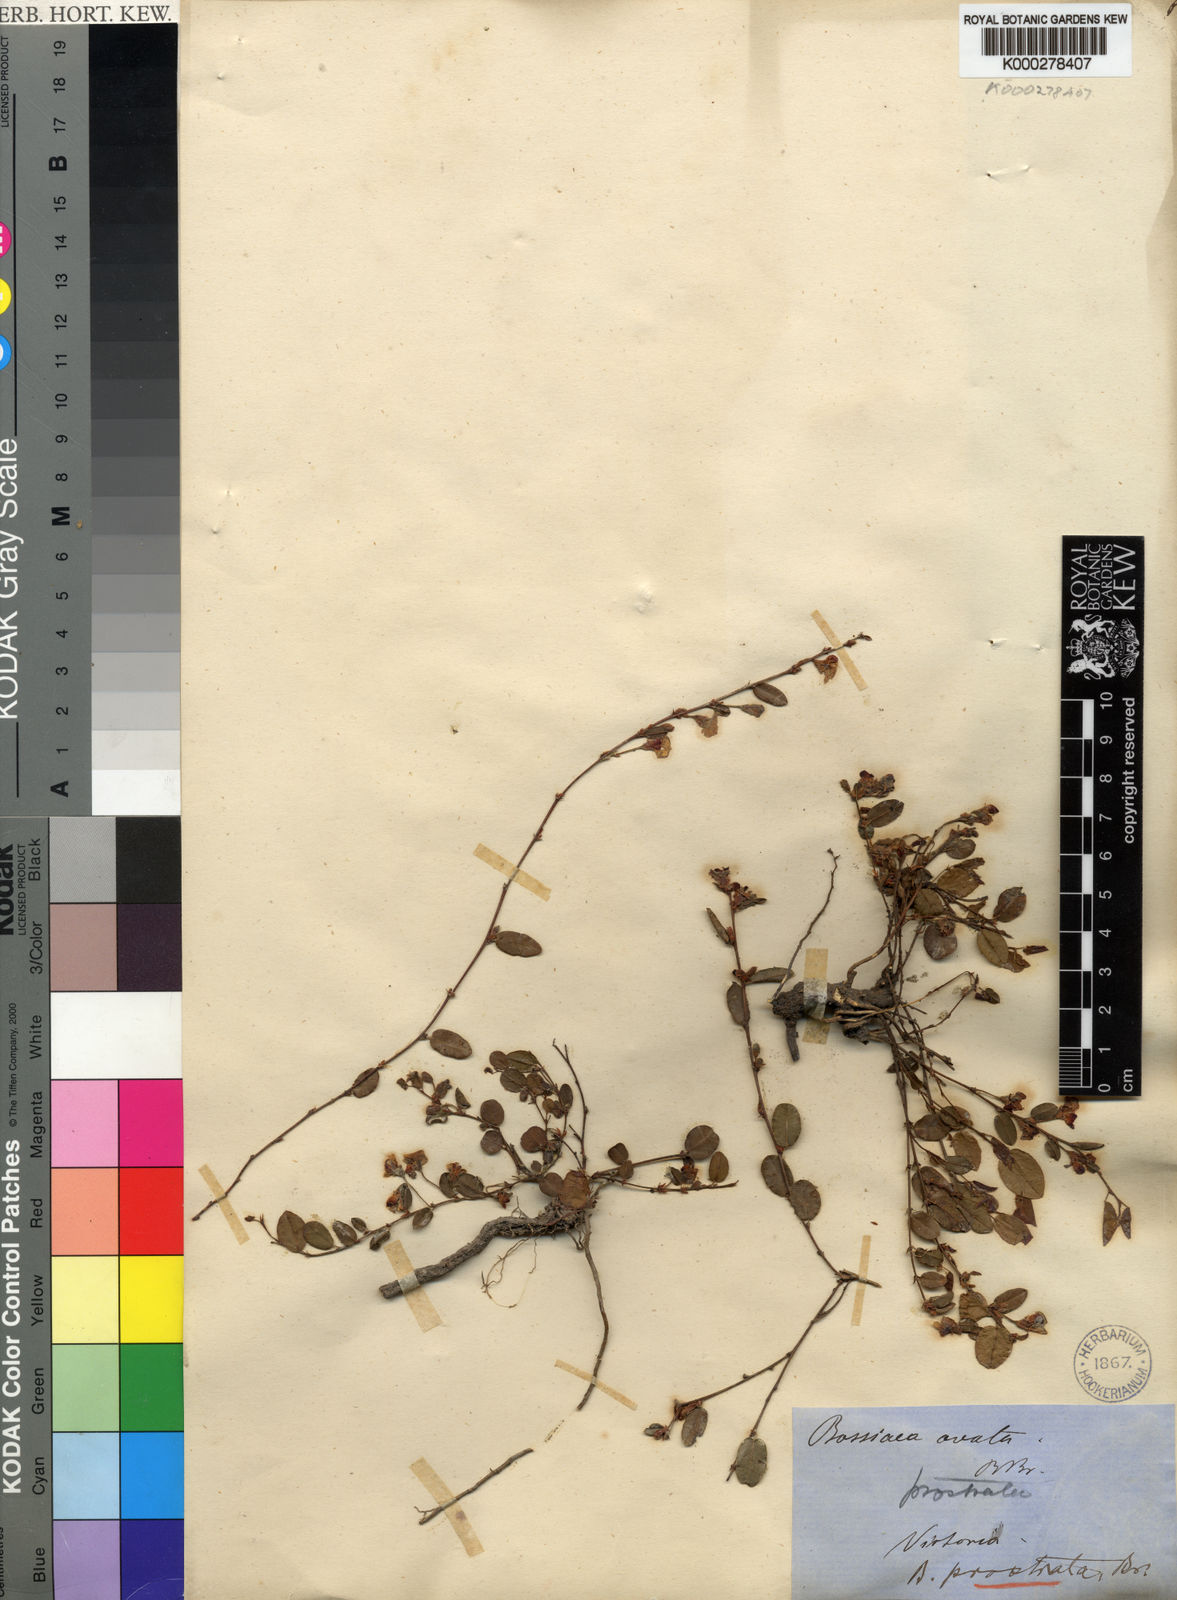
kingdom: Plantae
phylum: Tracheophyta
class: Magnoliopsida
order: Fabales
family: Fabaceae
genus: Bossiaea
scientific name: Bossiaea prostrata
